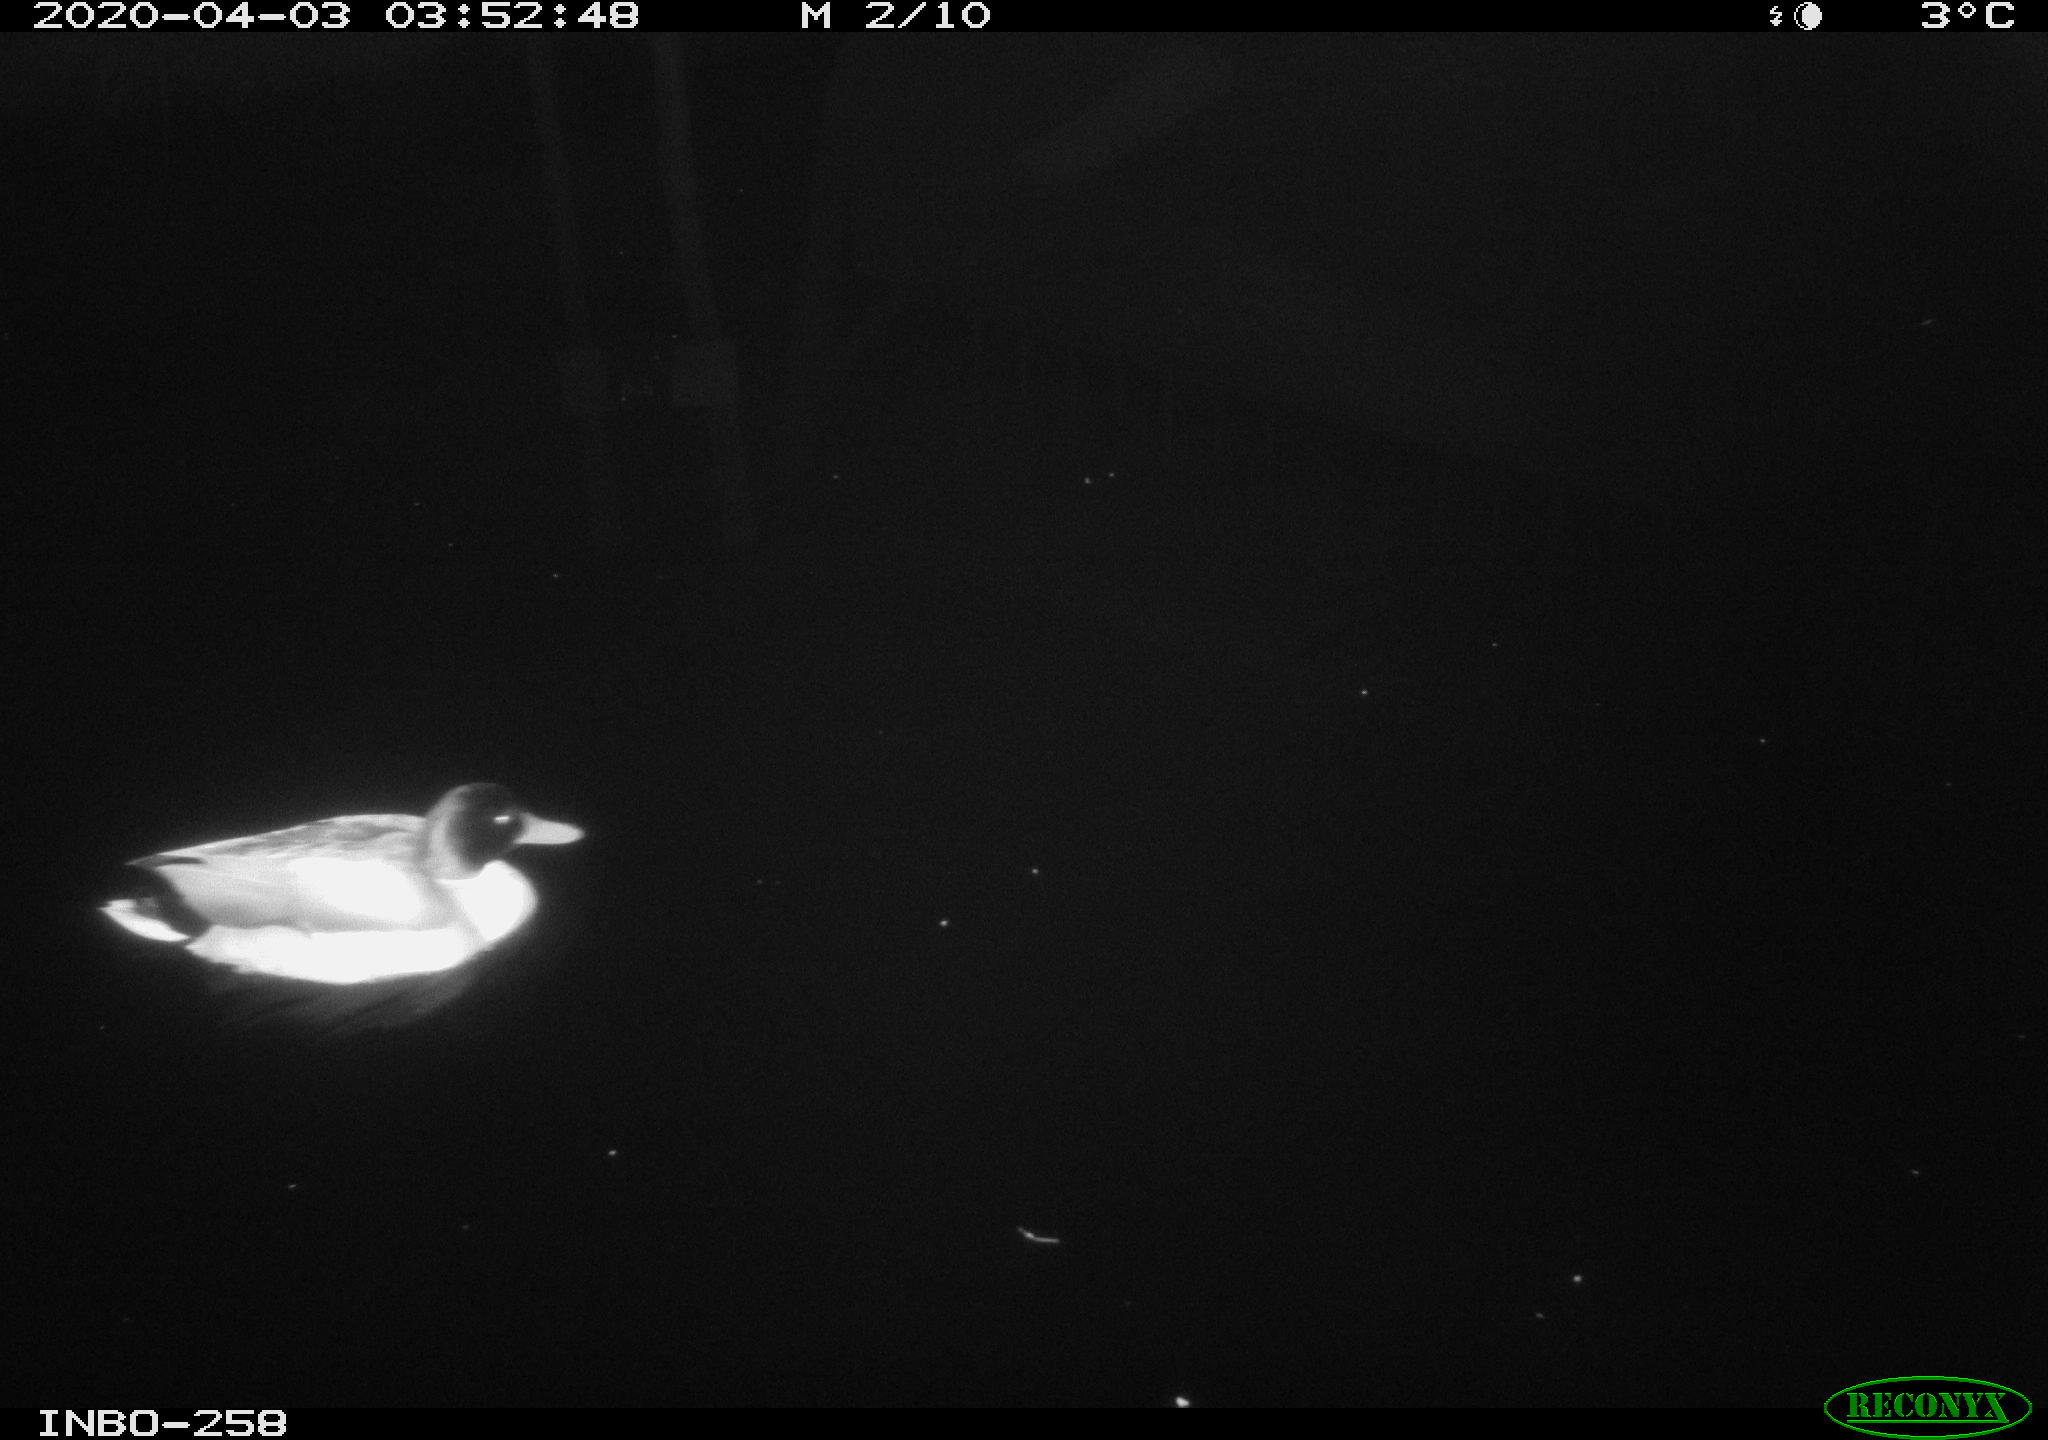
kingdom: Animalia
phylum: Chordata
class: Aves
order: Anseriformes
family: Anatidae
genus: Anas
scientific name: Anas platyrhynchos
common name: Mallard
